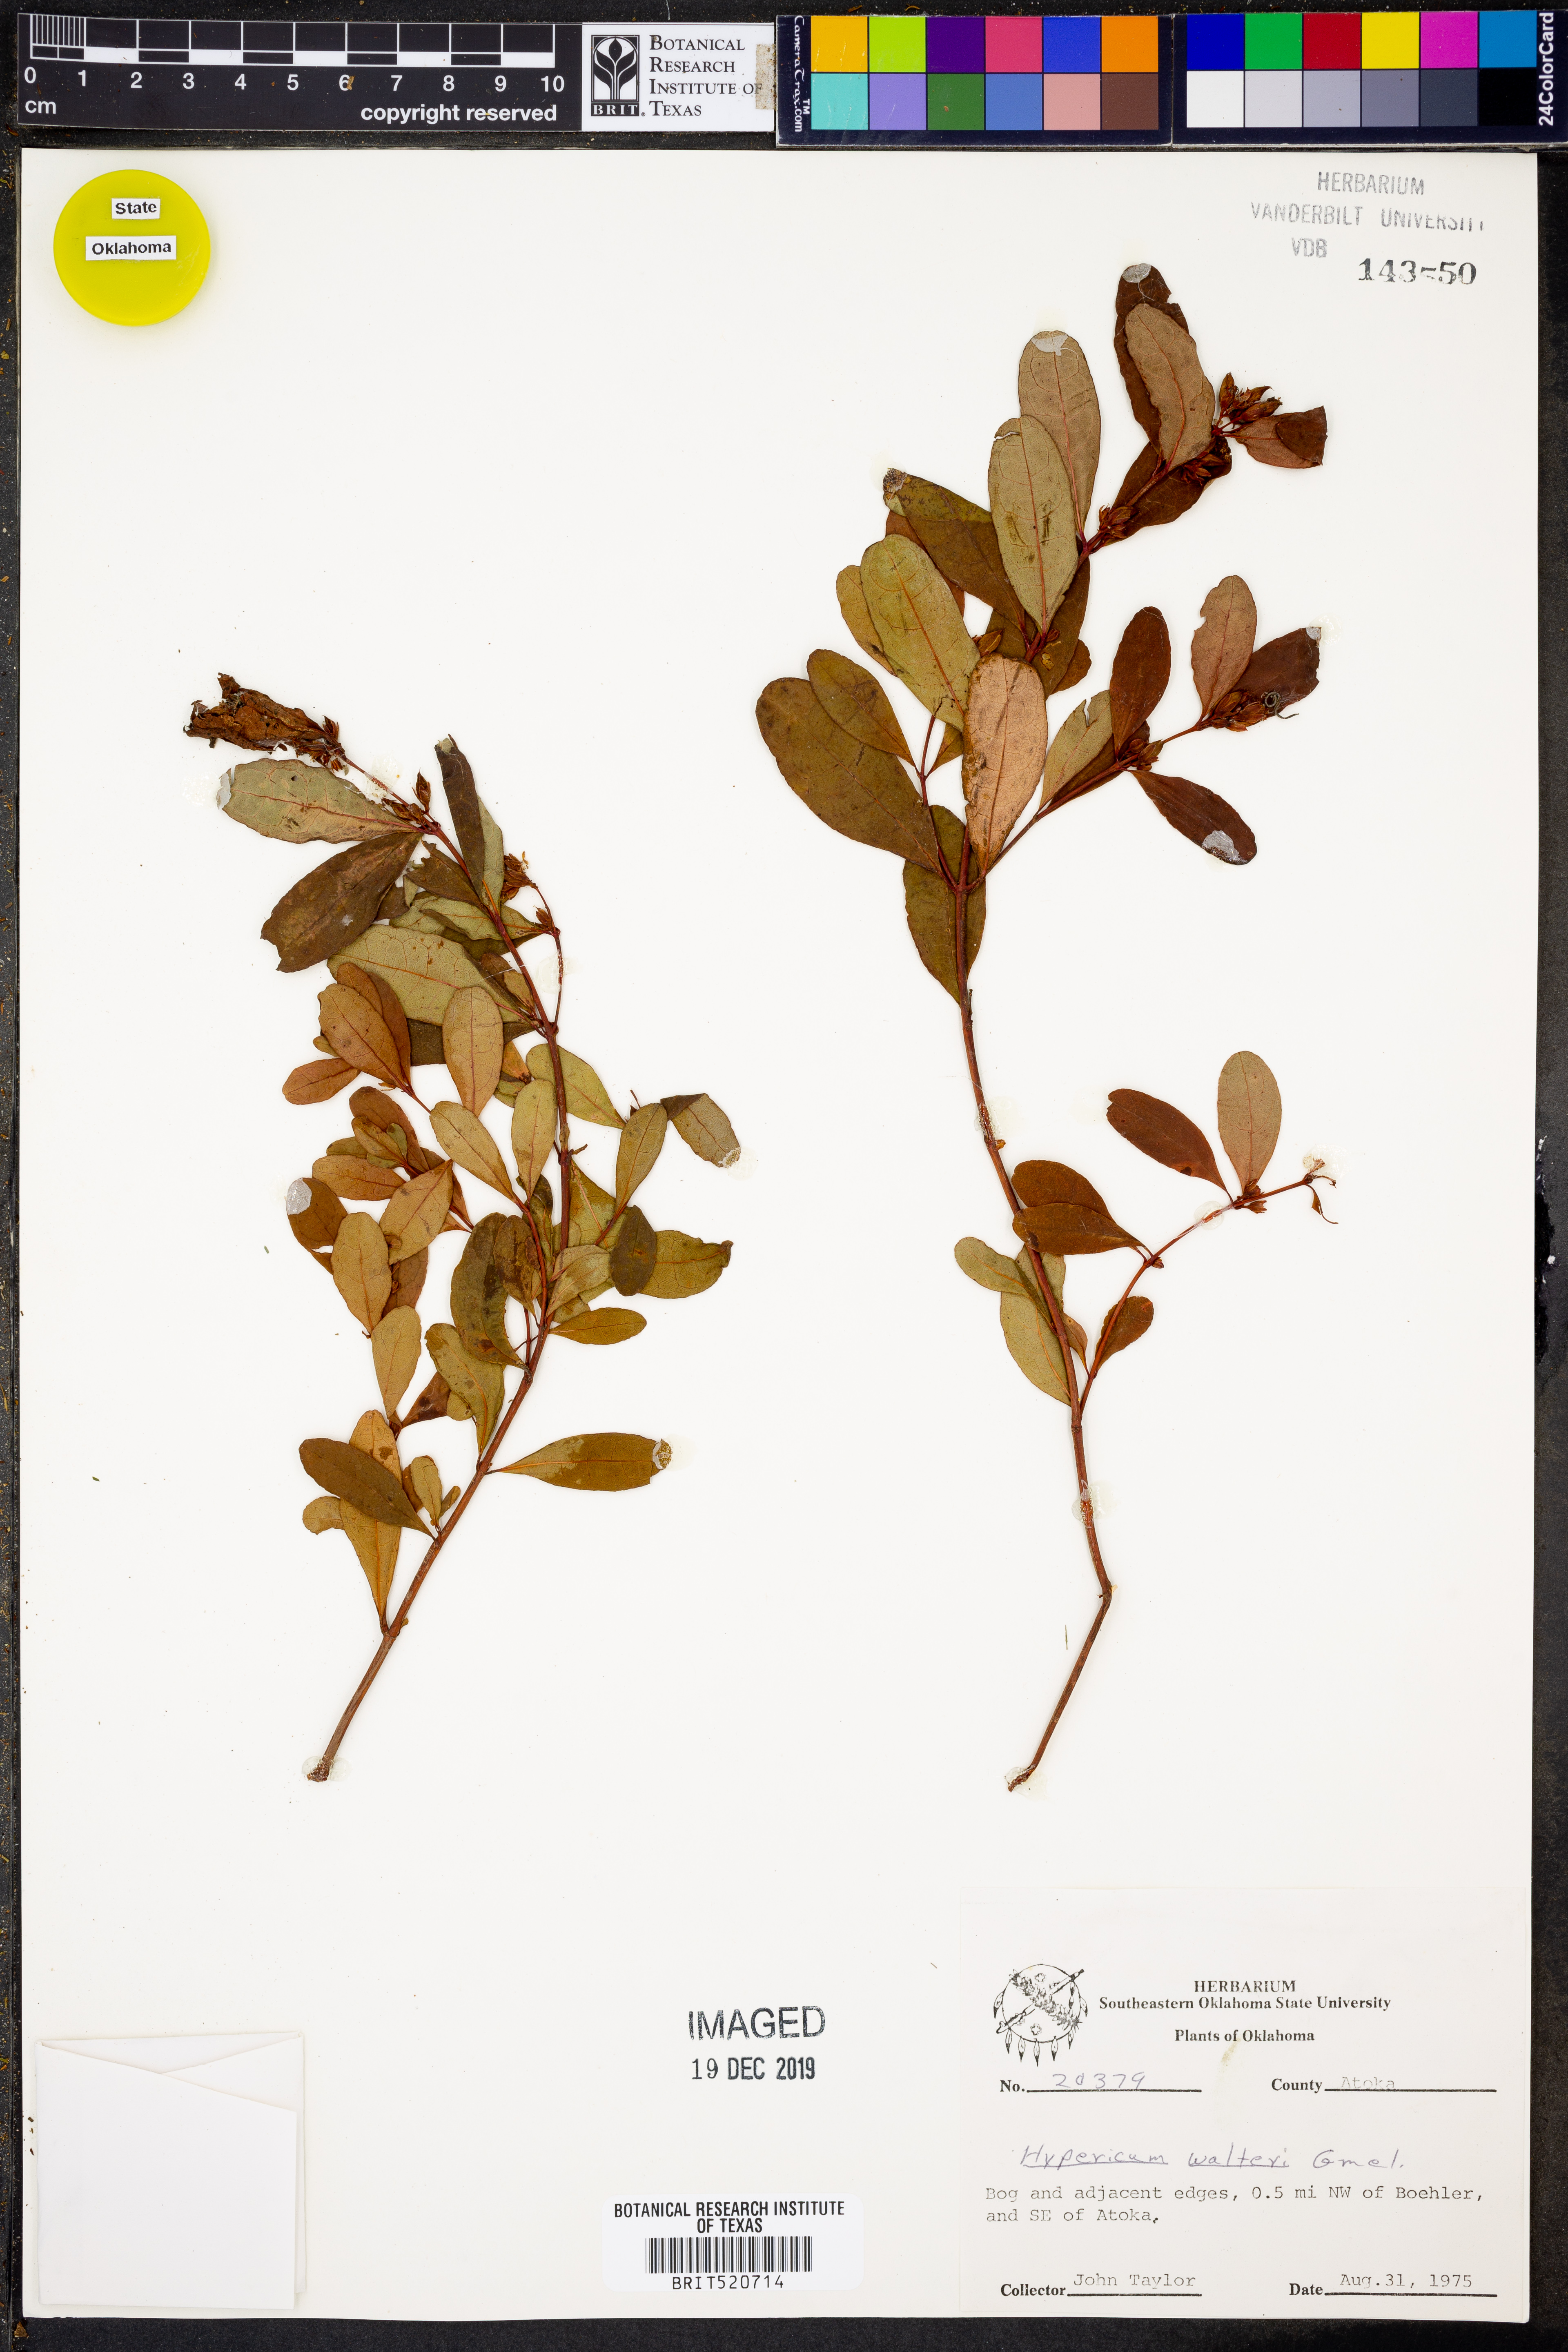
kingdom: Plantae
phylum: Tracheophyta
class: Magnoliopsida
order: Malpighiales
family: Hypericaceae
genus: Triadenum
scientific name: Triadenum walteri
